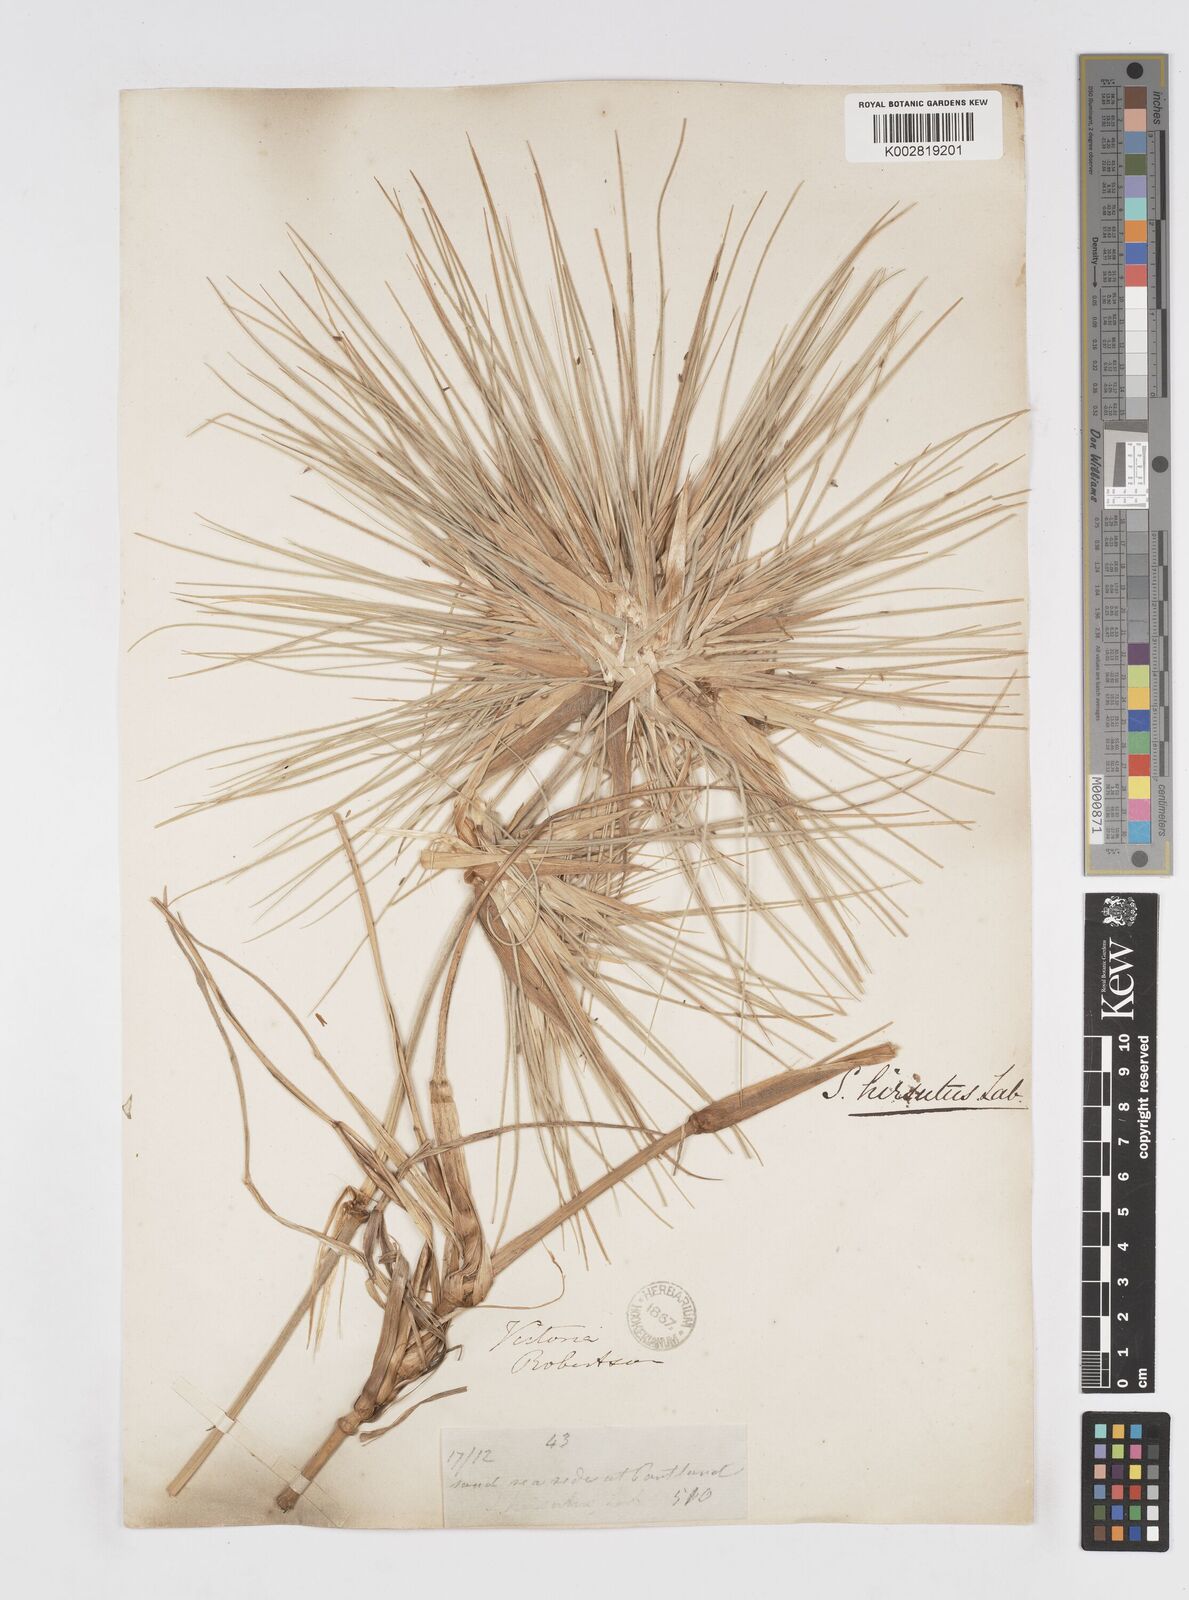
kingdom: Plantae
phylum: Tracheophyta
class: Liliopsida
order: Poales
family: Poaceae
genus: Spinifex
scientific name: Spinifex sericeus
